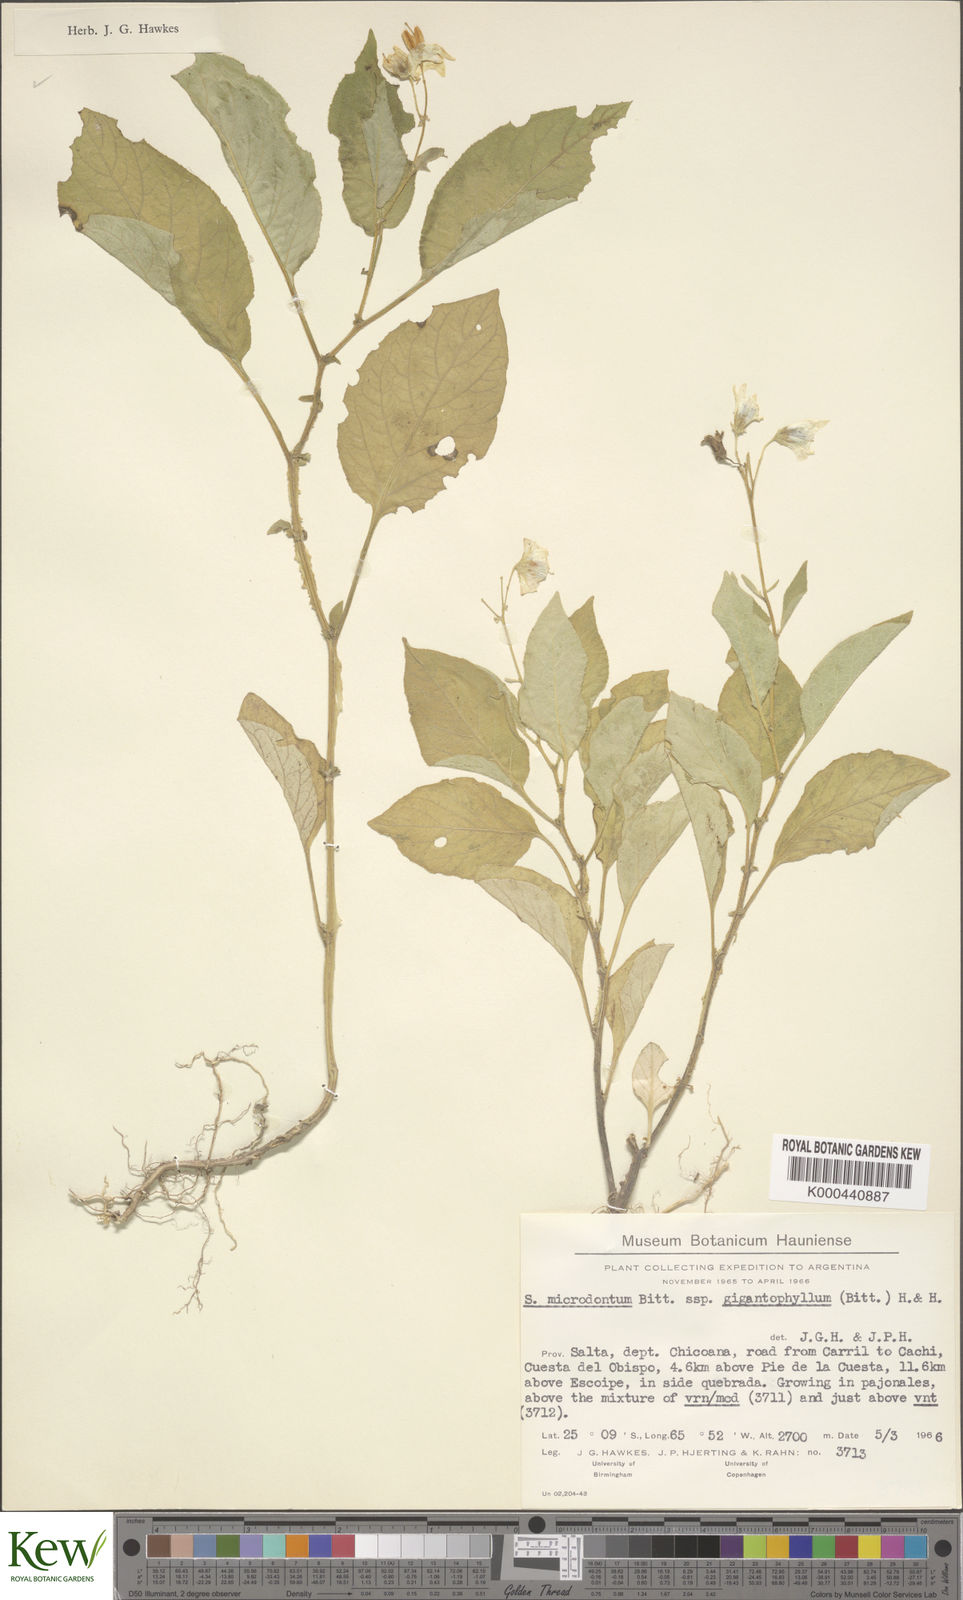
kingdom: Plantae
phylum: Tracheophyta
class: Magnoliopsida
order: Solanales
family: Solanaceae
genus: Solanum
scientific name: Solanum microdontum
